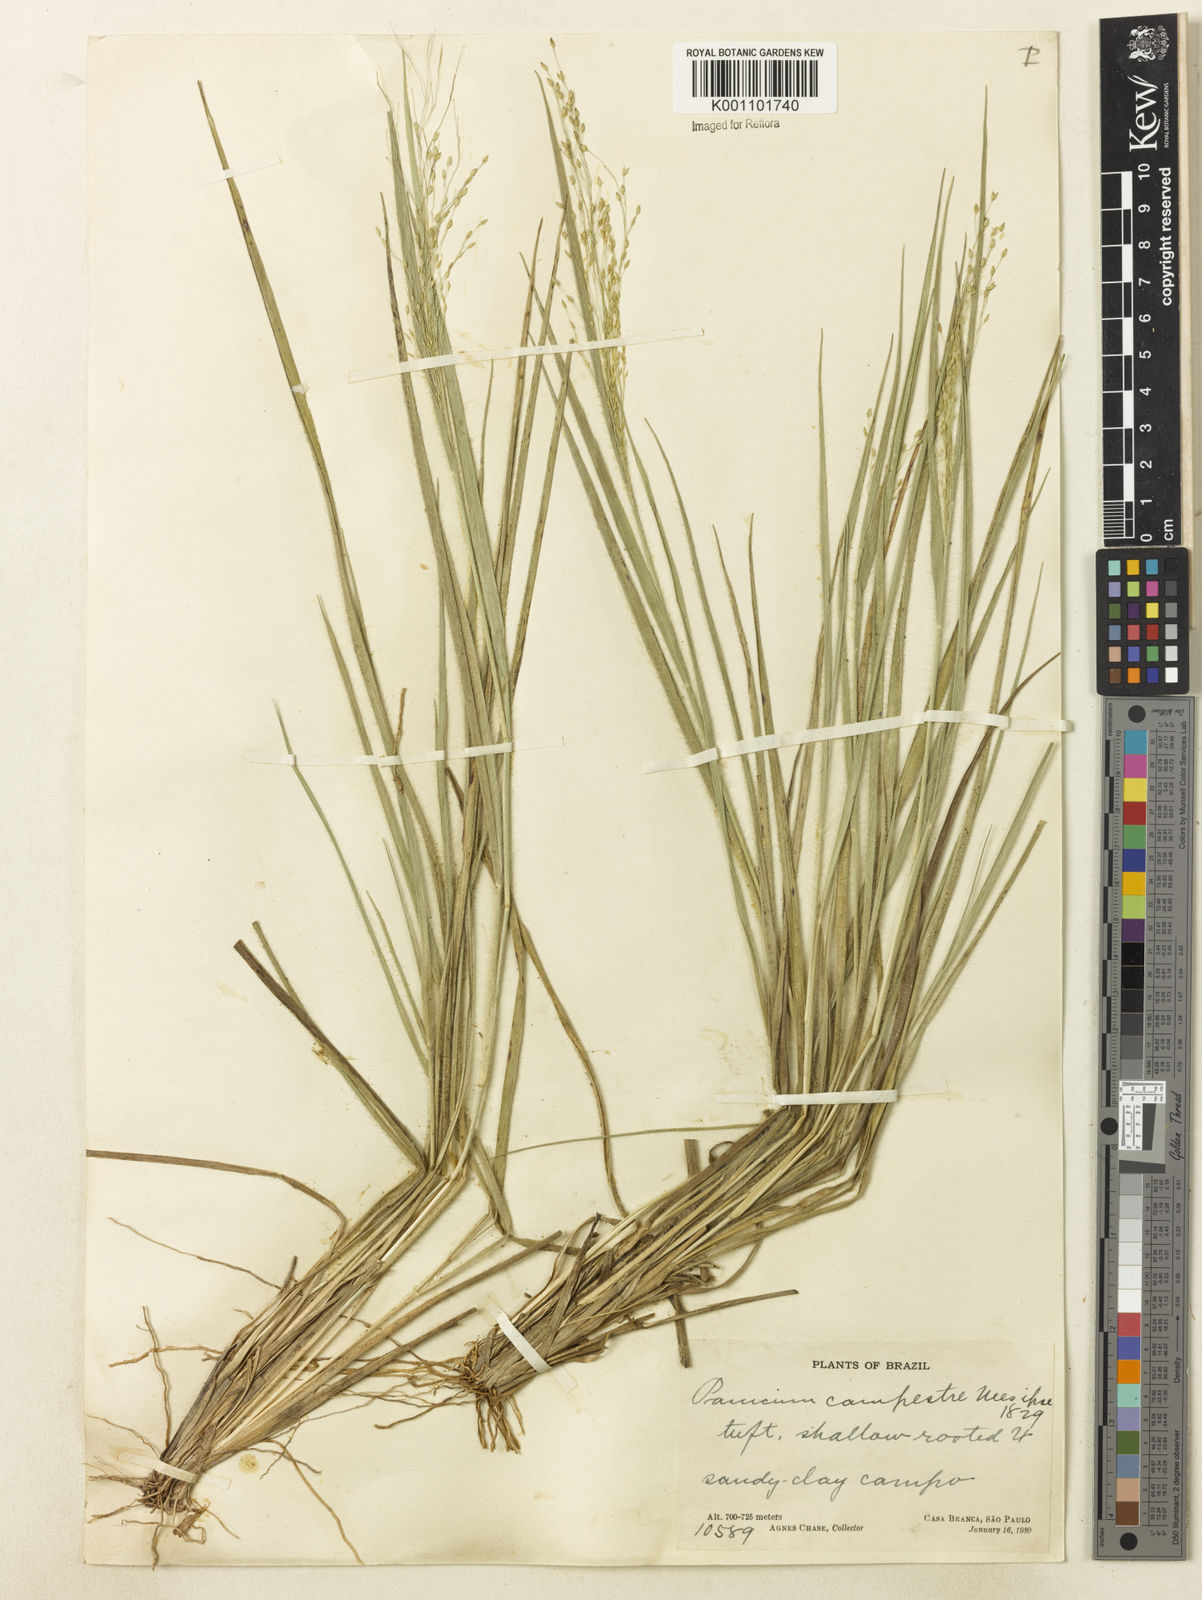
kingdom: Plantae
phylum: Tracheophyta
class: Liliopsida
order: Poales
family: Poaceae
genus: Panicum
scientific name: Panicum peladoense
